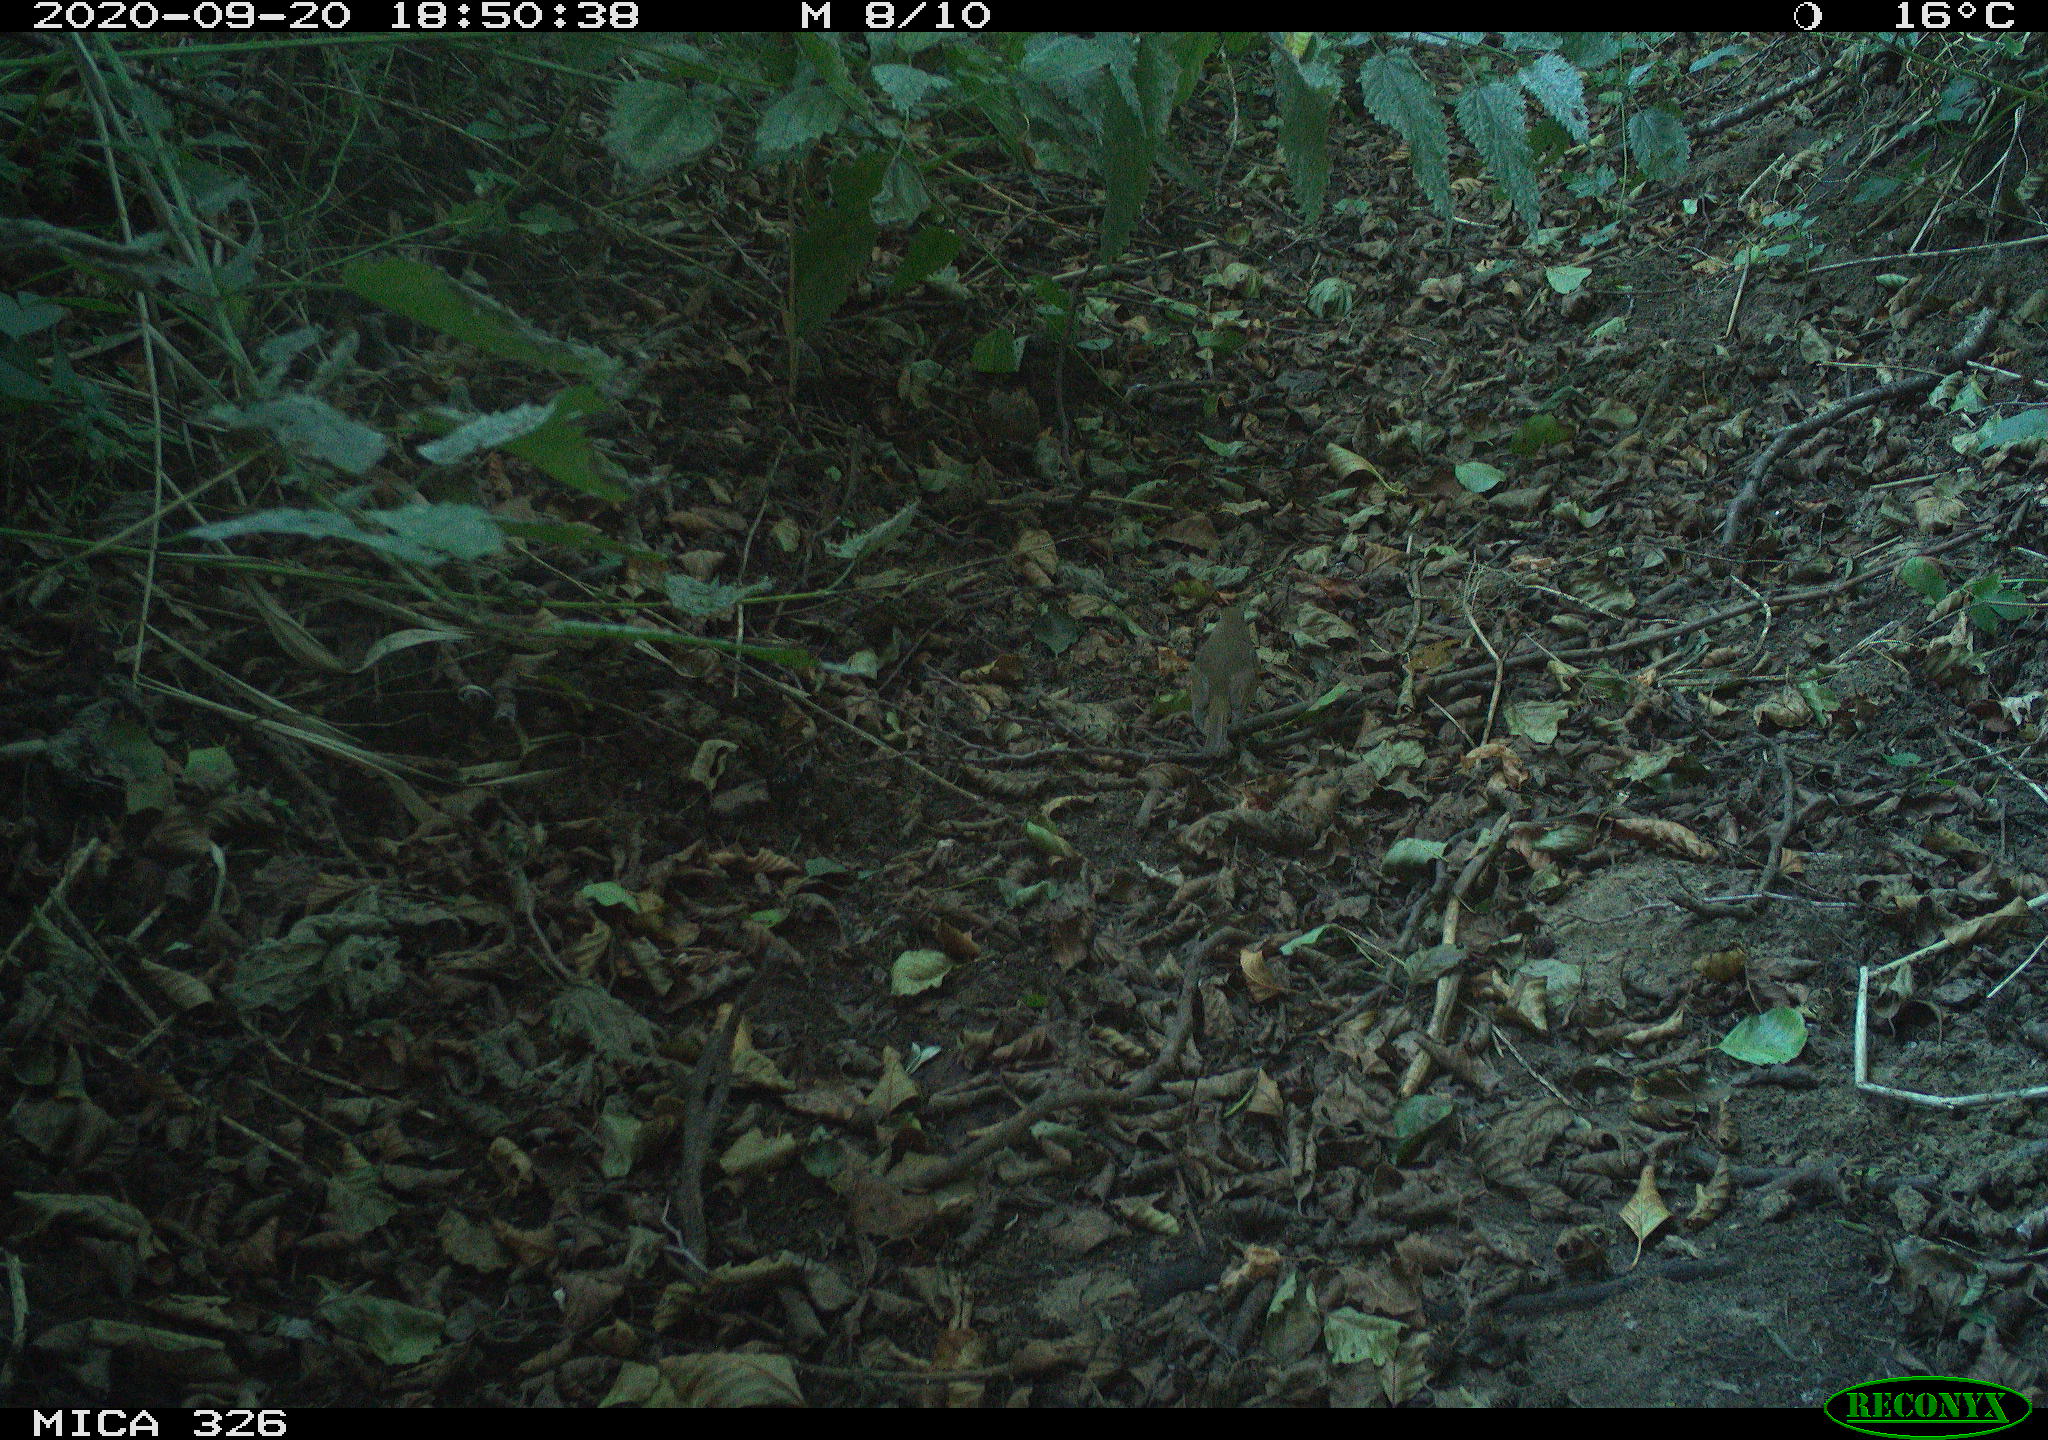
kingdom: Animalia
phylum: Chordata
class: Aves
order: Passeriformes
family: Muscicapidae
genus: Erithacus
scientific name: Erithacus rubecula
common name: European robin
